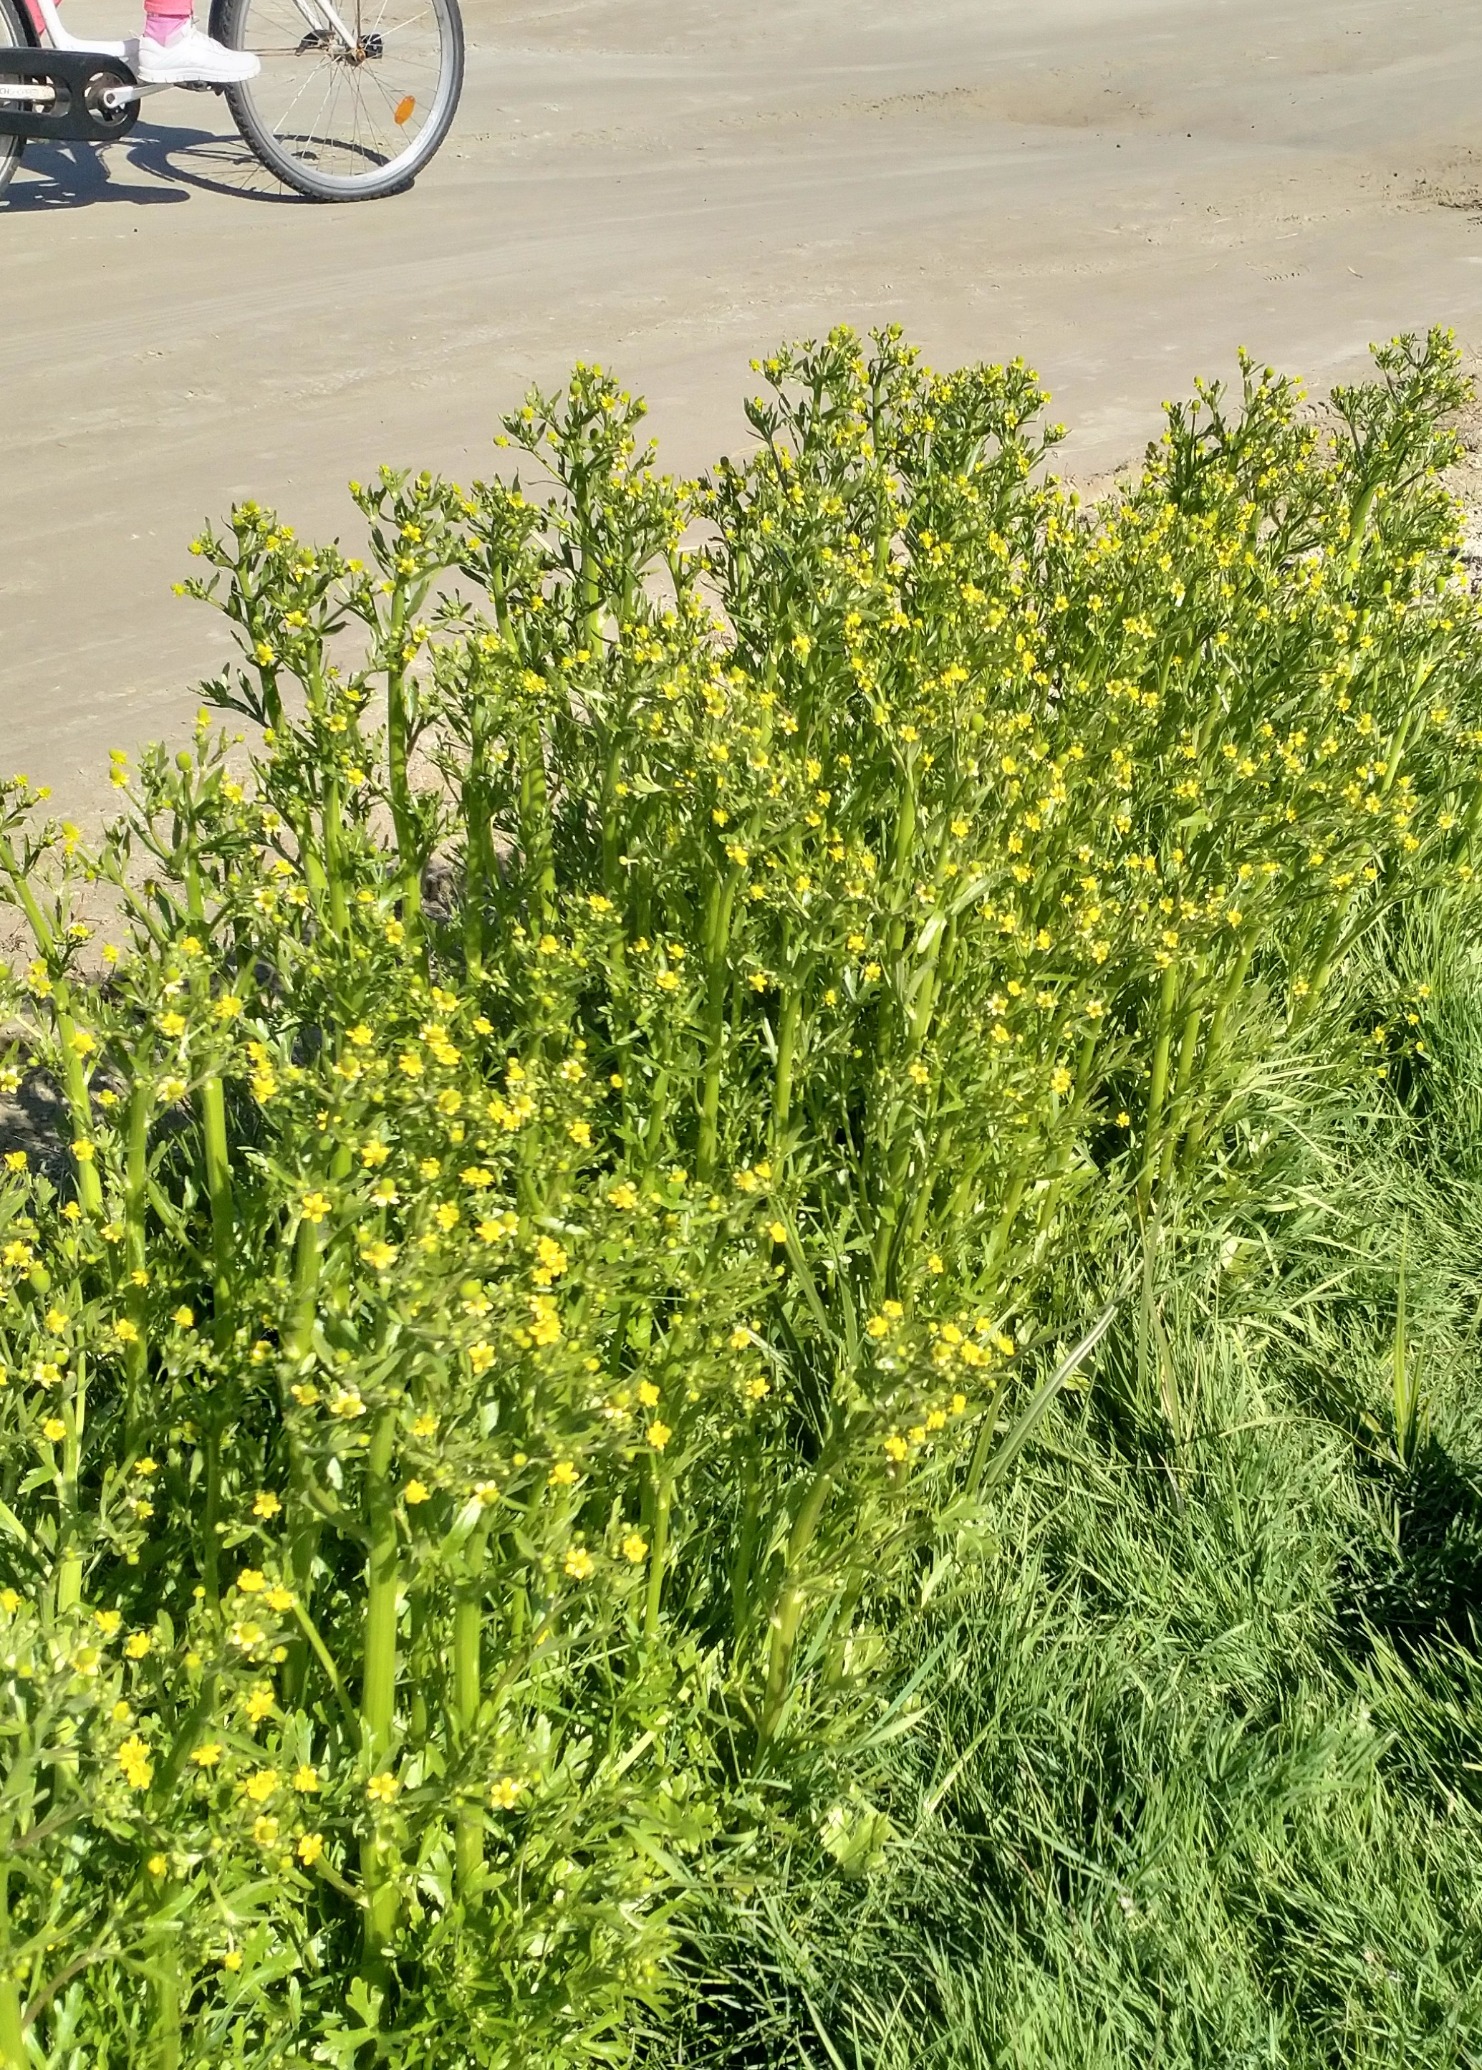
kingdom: Plantae
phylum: Tracheophyta
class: Magnoliopsida
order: Ranunculales
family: Ranunculaceae
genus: Ranunculus
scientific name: Ranunculus sceleratus
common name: Tigger-ranunkel
